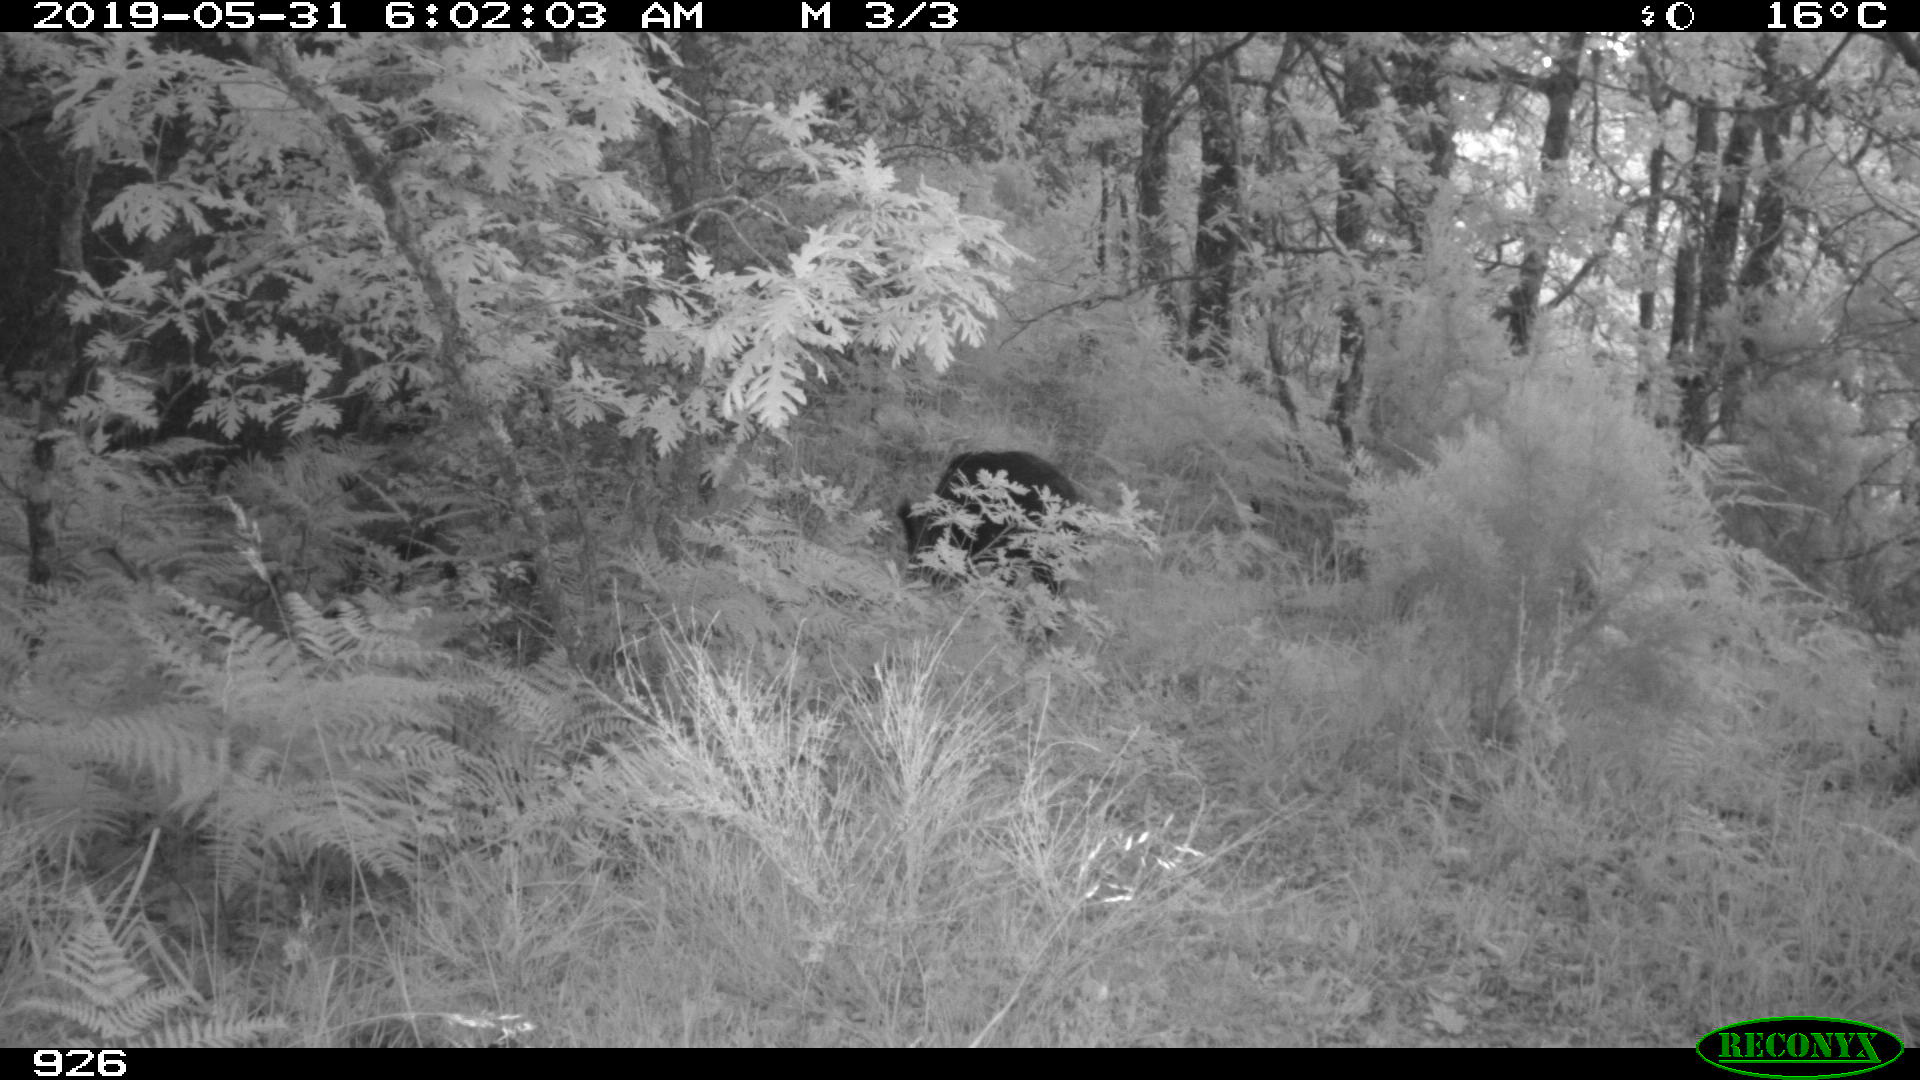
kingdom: Animalia
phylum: Chordata
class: Mammalia
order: Artiodactyla
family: Suidae
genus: Sus
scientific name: Sus scrofa
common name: Wild boar
